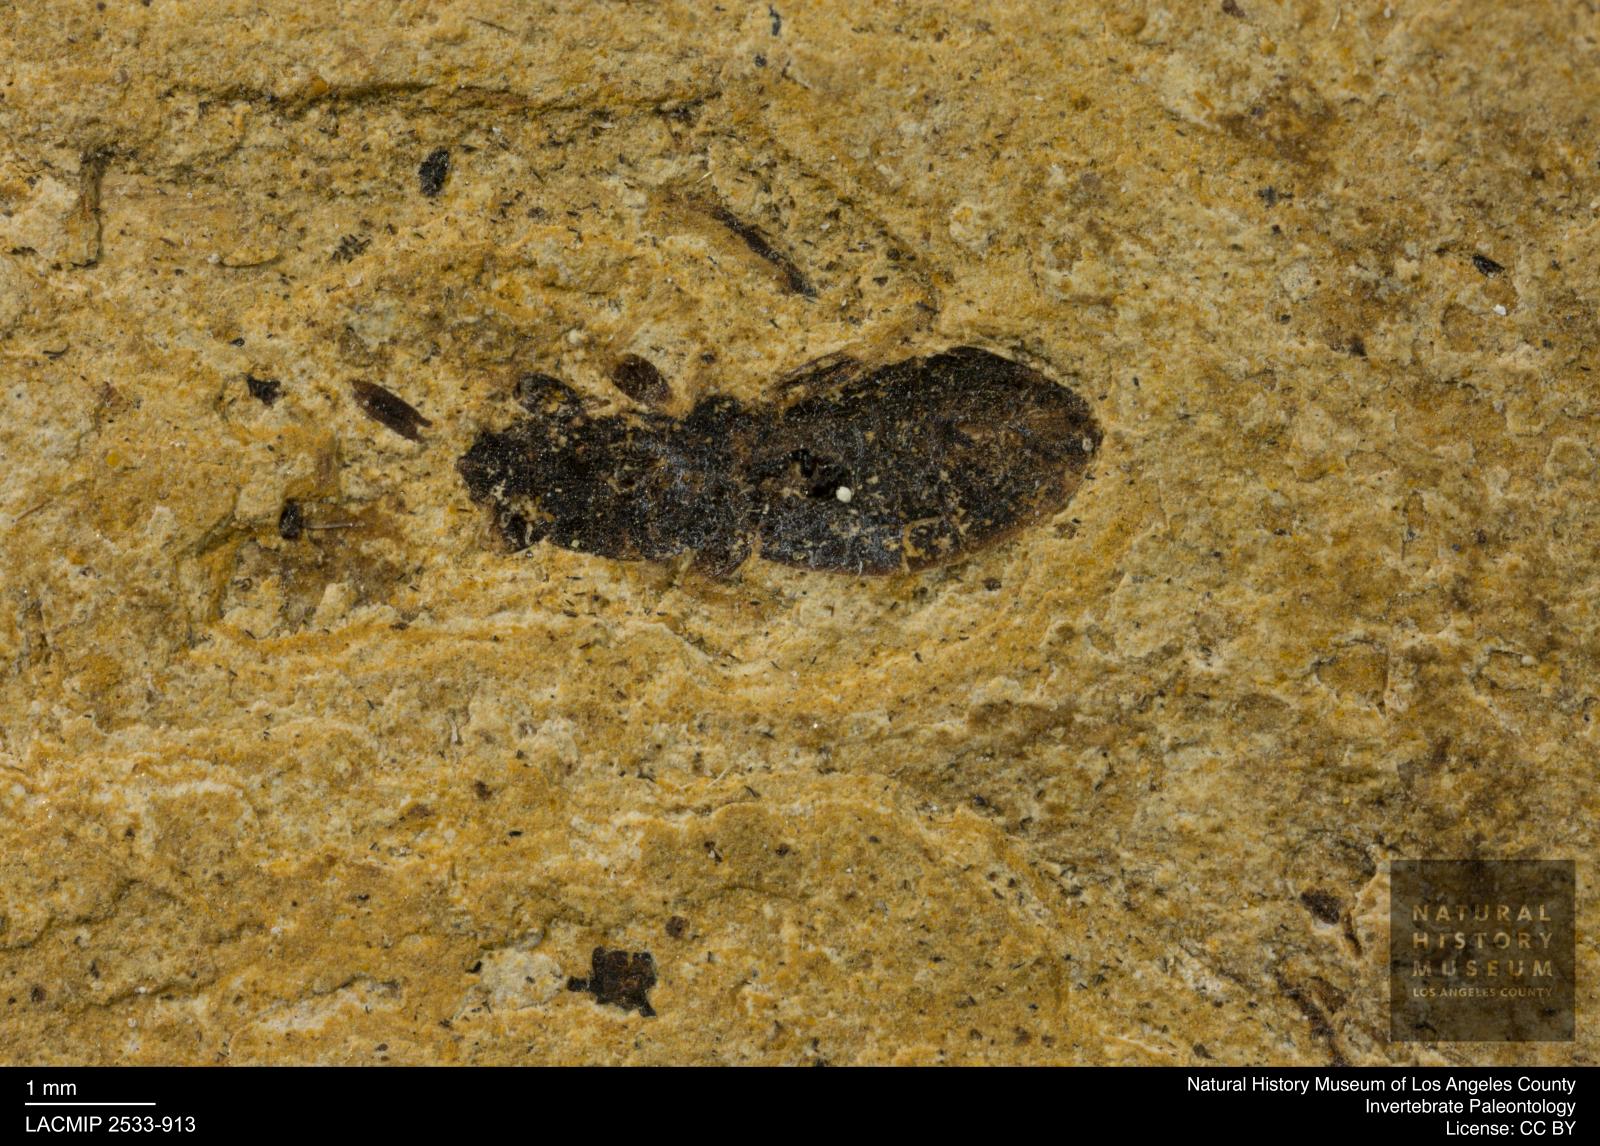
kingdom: Animalia
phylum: Arthropoda
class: Insecta
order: Hemiptera
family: Lygaeidae
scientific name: Lygaeidae
